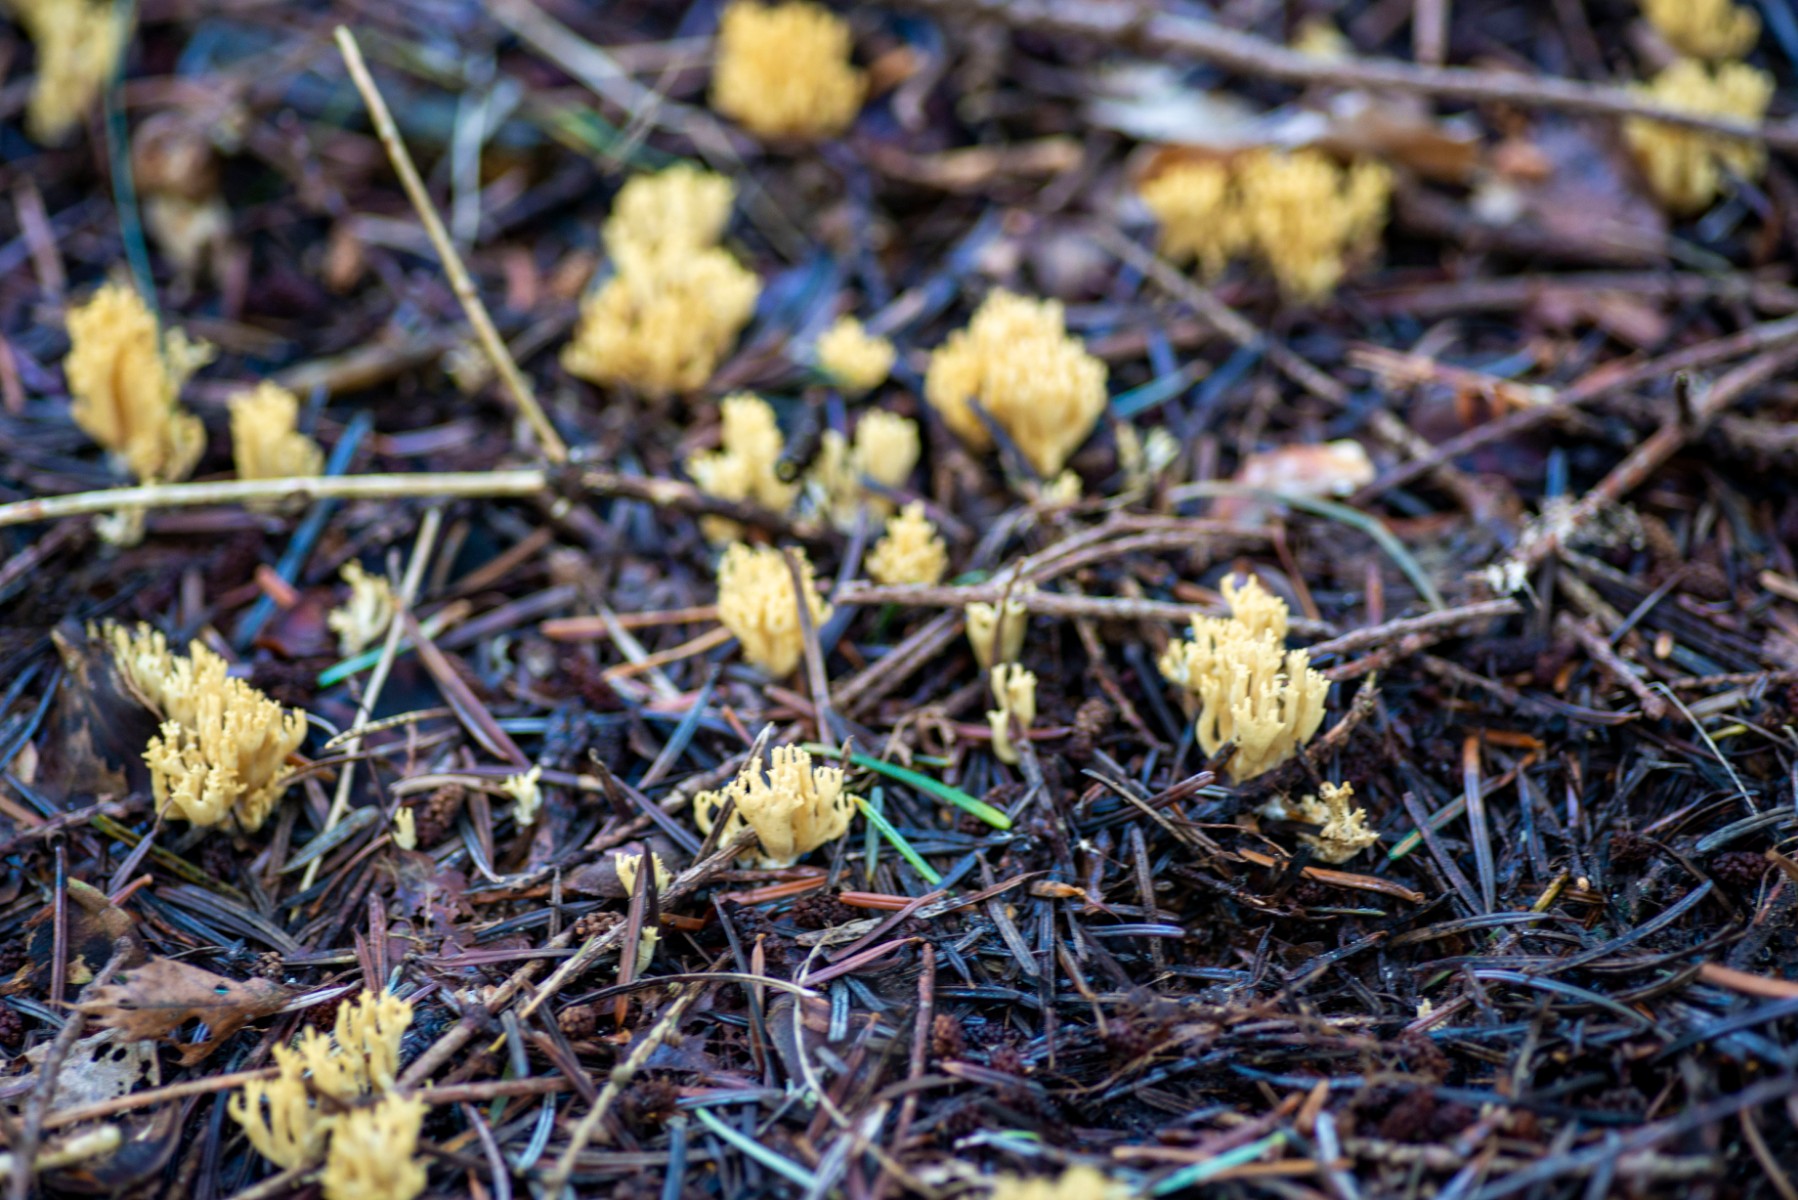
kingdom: Fungi
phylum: Basidiomycota
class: Agaricomycetes
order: Gomphales
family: Gomphaceae
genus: Phaeoclavulina
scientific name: Phaeoclavulina eumorpha
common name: gran-koralsvamp
